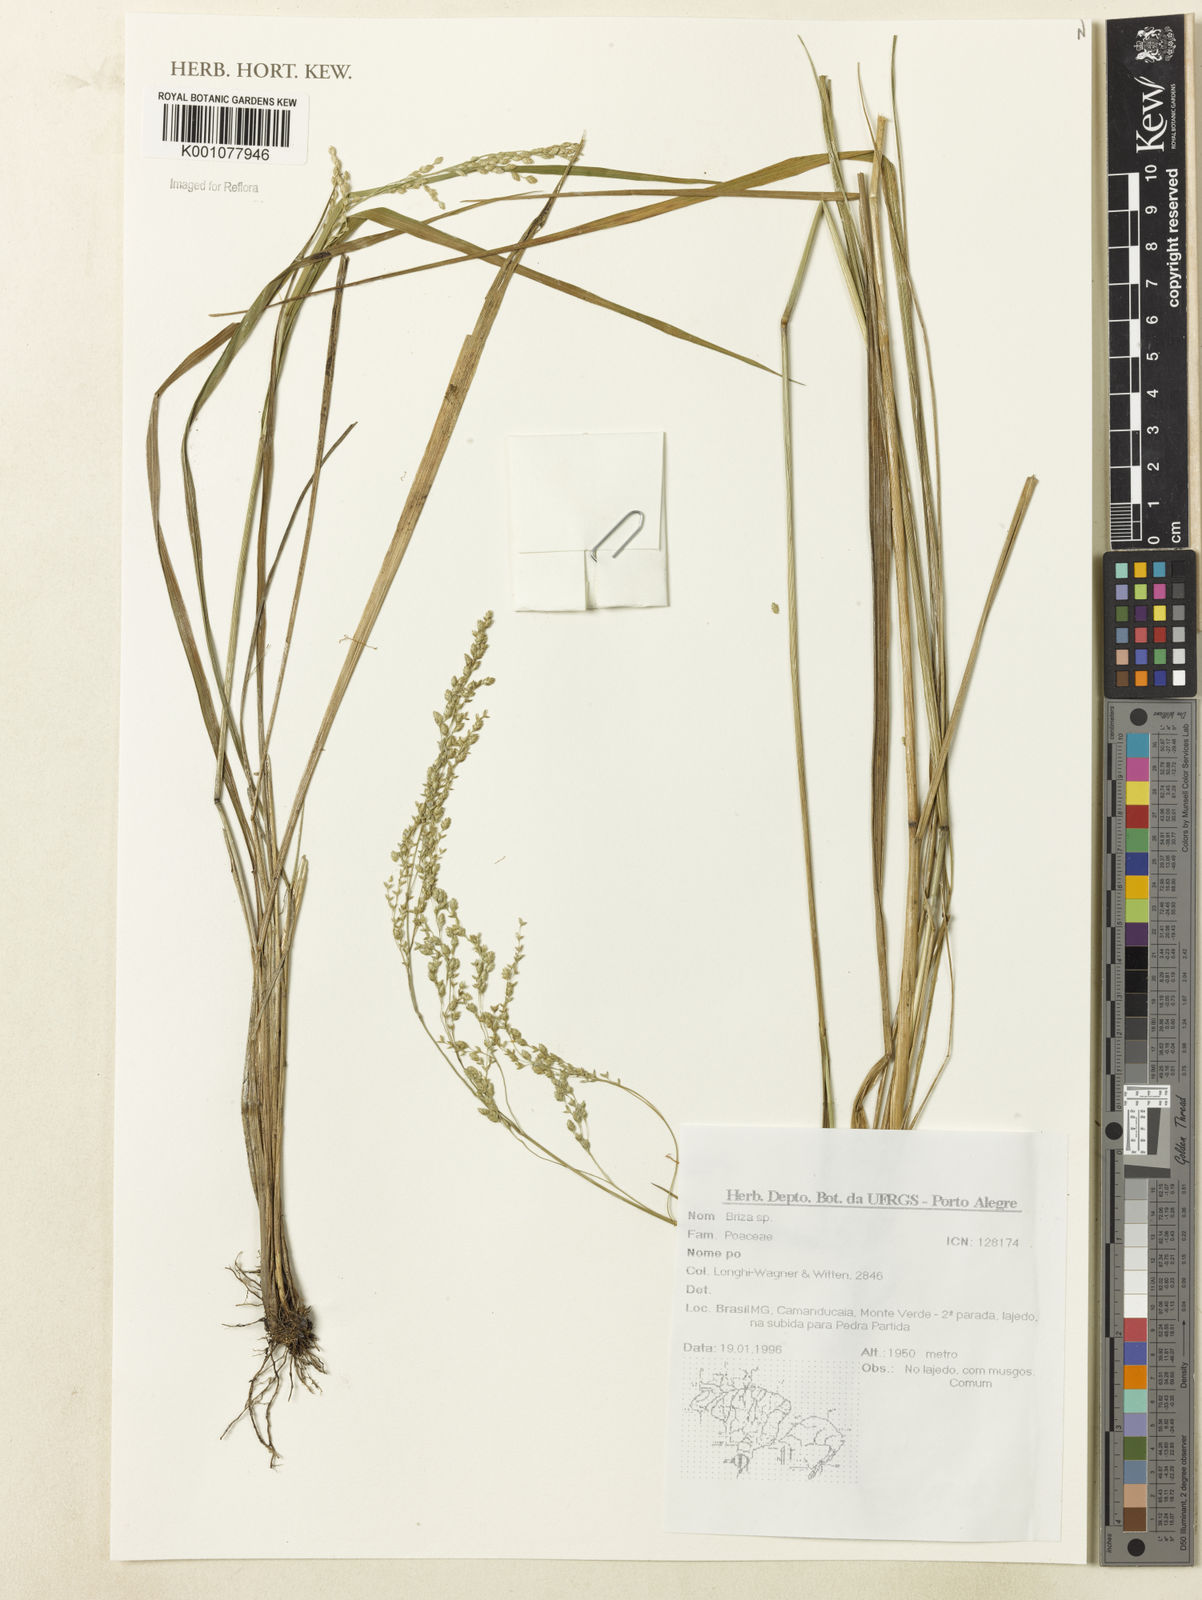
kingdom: Plantae
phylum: Tracheophyta
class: Liliopsida
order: Poales
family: Poaceae
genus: Briza
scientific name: Briza
